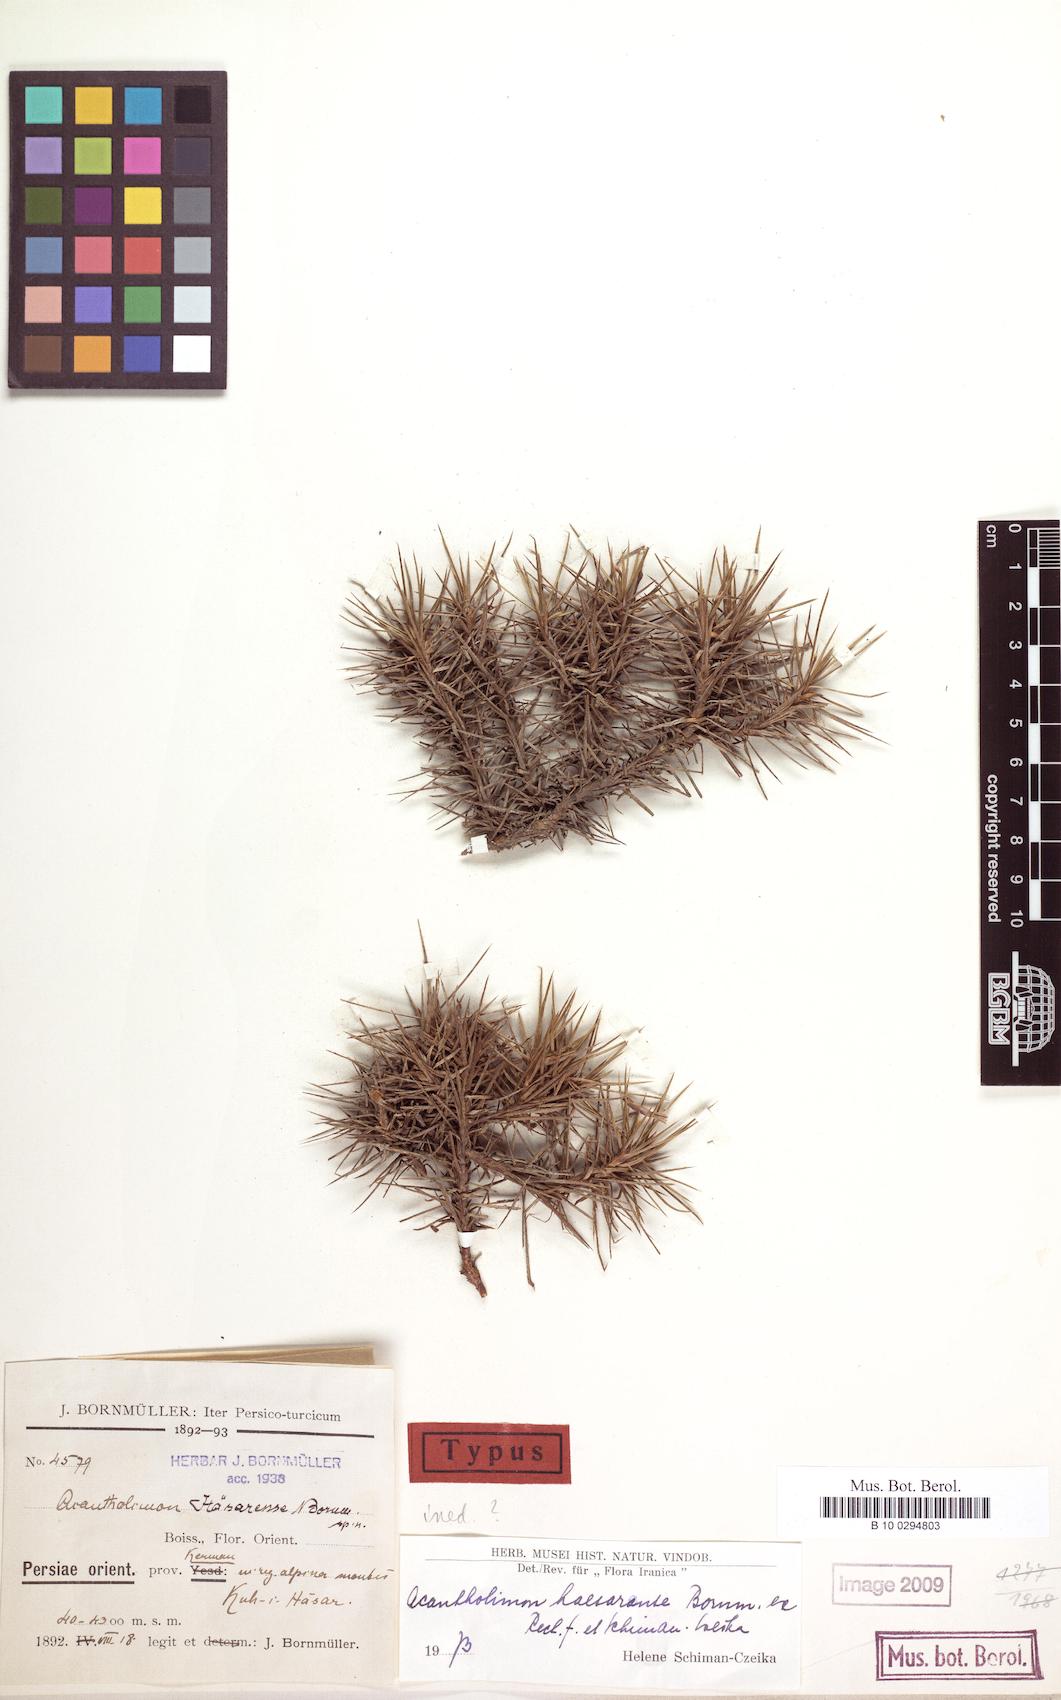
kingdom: Plantae
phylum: Tracheophyta
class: Magnoliopsida
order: Caryophyllales
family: Plumbaginaceae
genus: Acantholimon
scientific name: Acantholimon haesarensis
